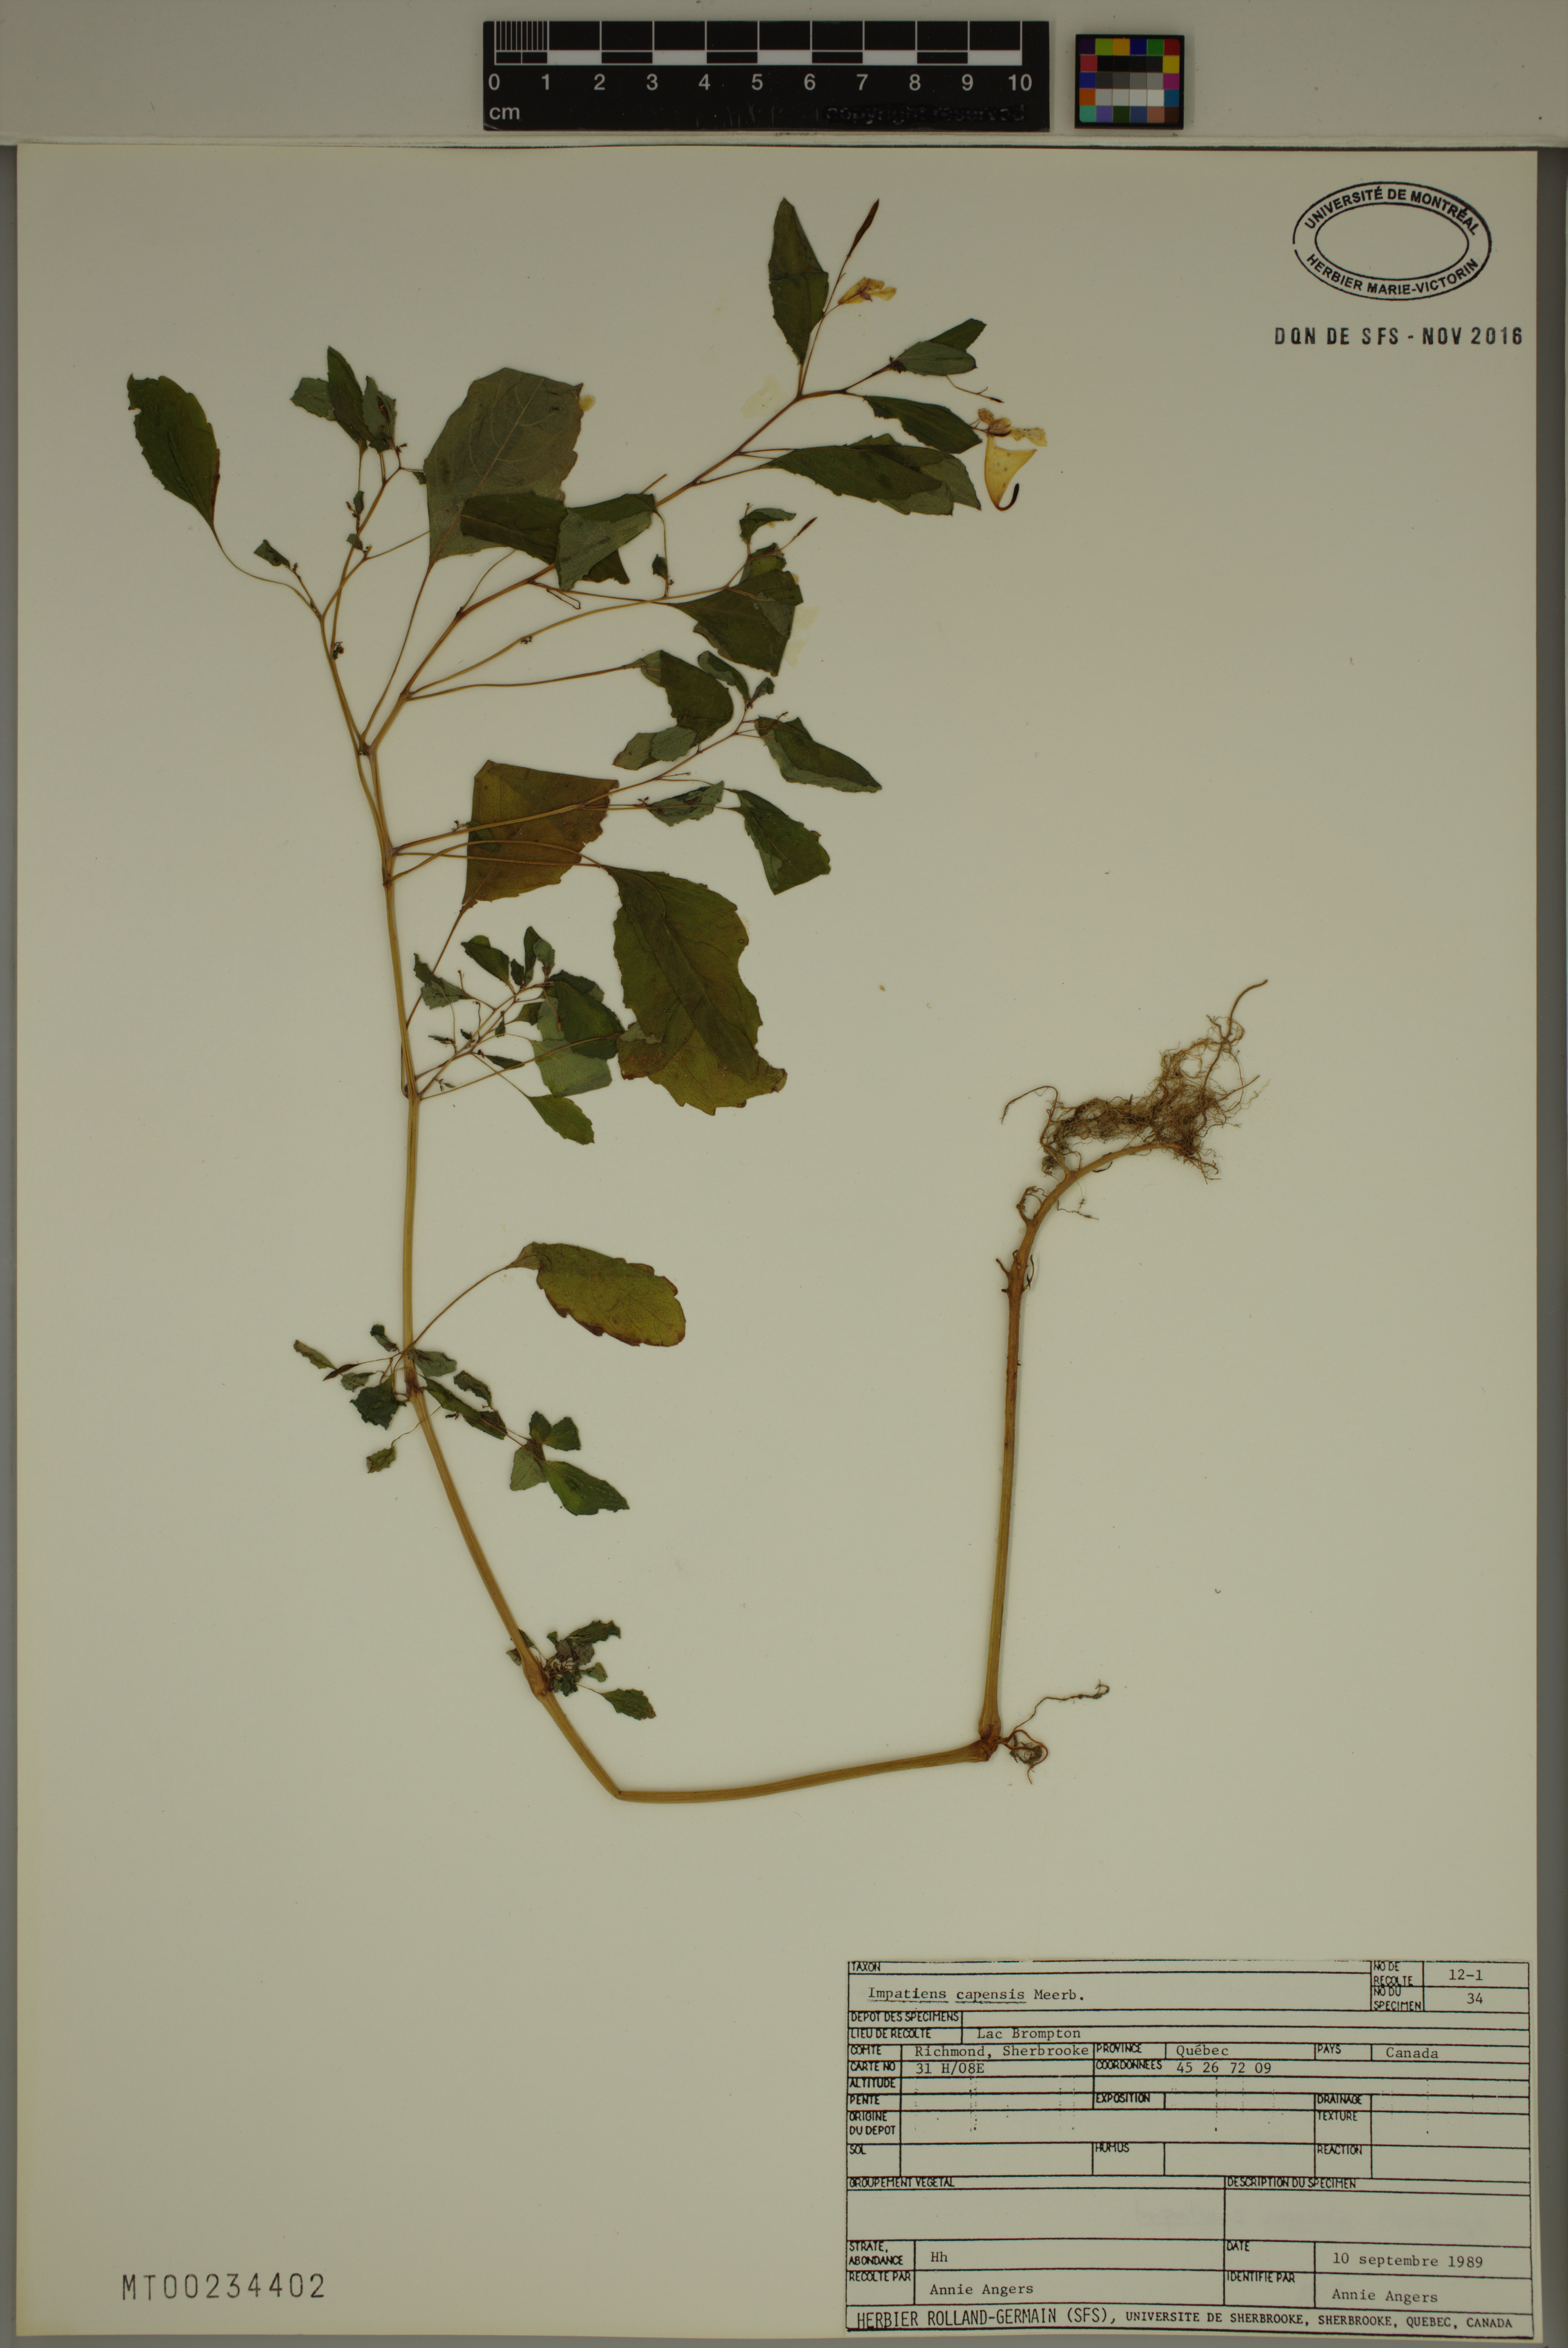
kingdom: Plantae
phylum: Tracheophyta
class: Magnoliopsida
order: Ericales
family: Balsaminaceae
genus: Impatiens
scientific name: Impatiens capensis
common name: Orange balsam
